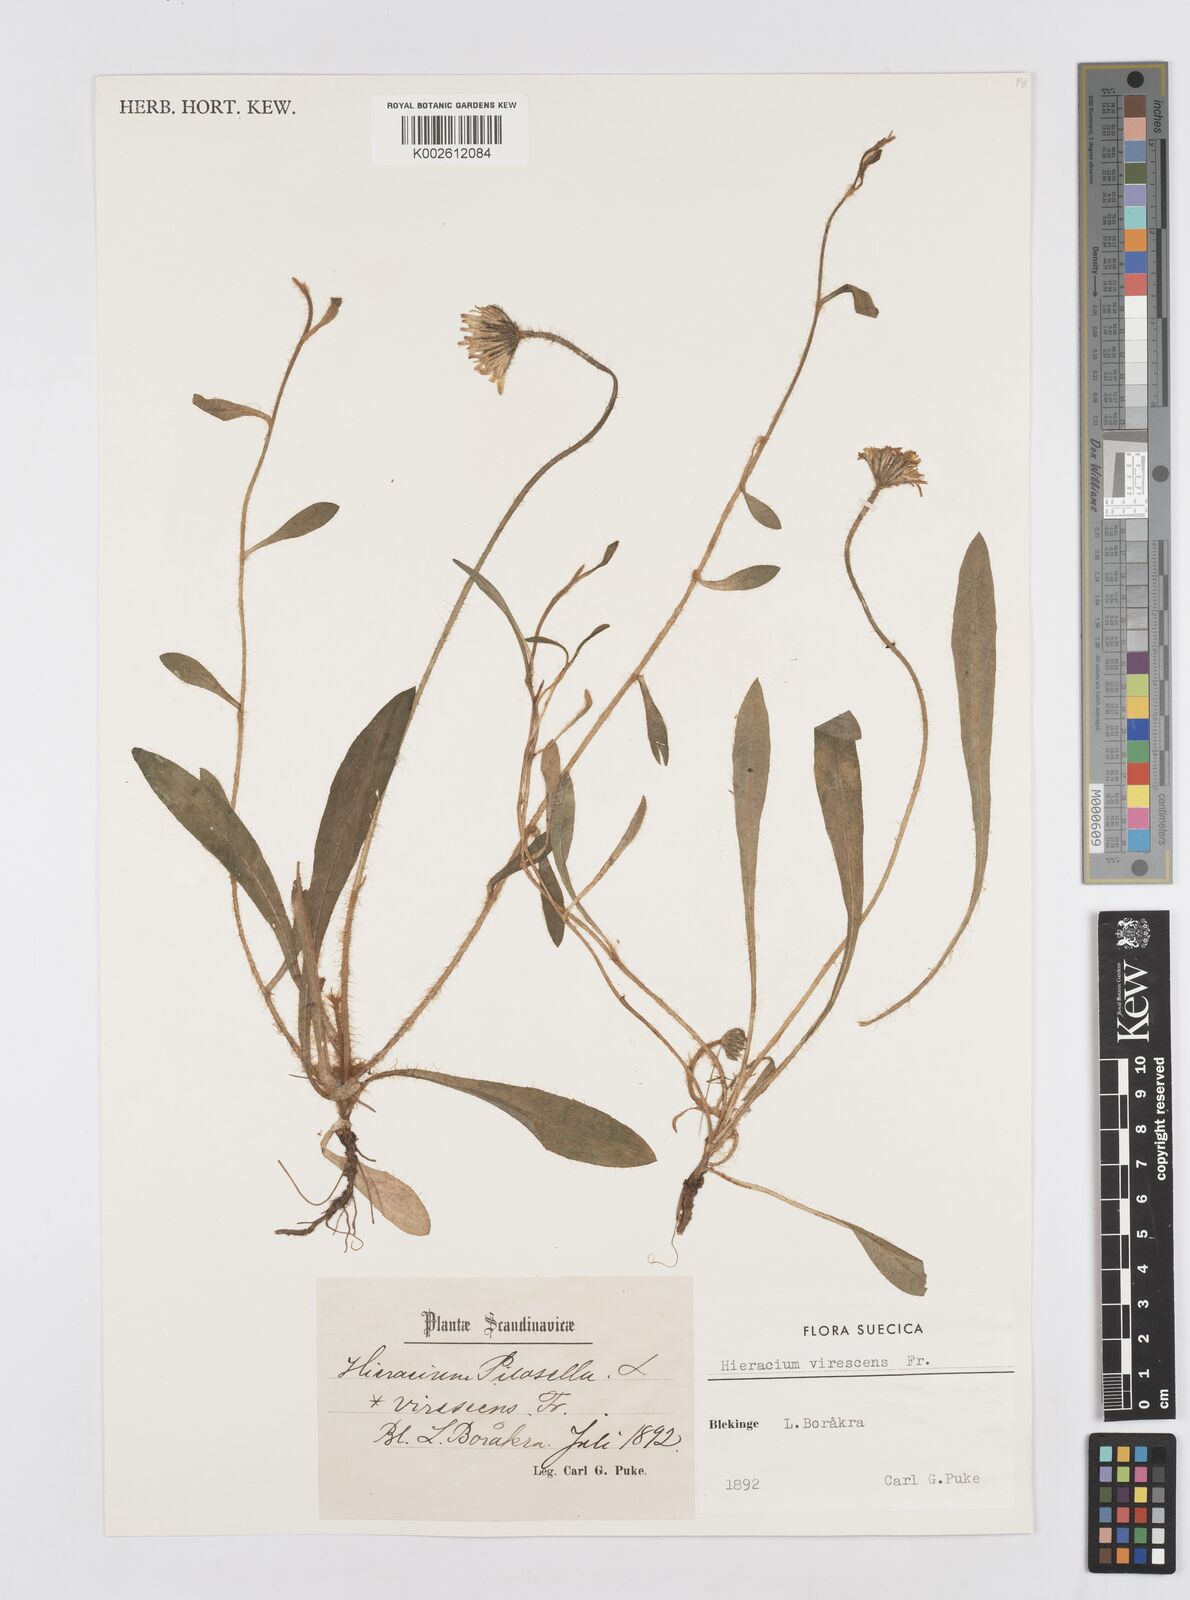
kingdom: Plantae
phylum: Tracheophyta
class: Magnoliopsida
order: Asterales
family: Asteraceae
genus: Hieracium
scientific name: Hieracium
